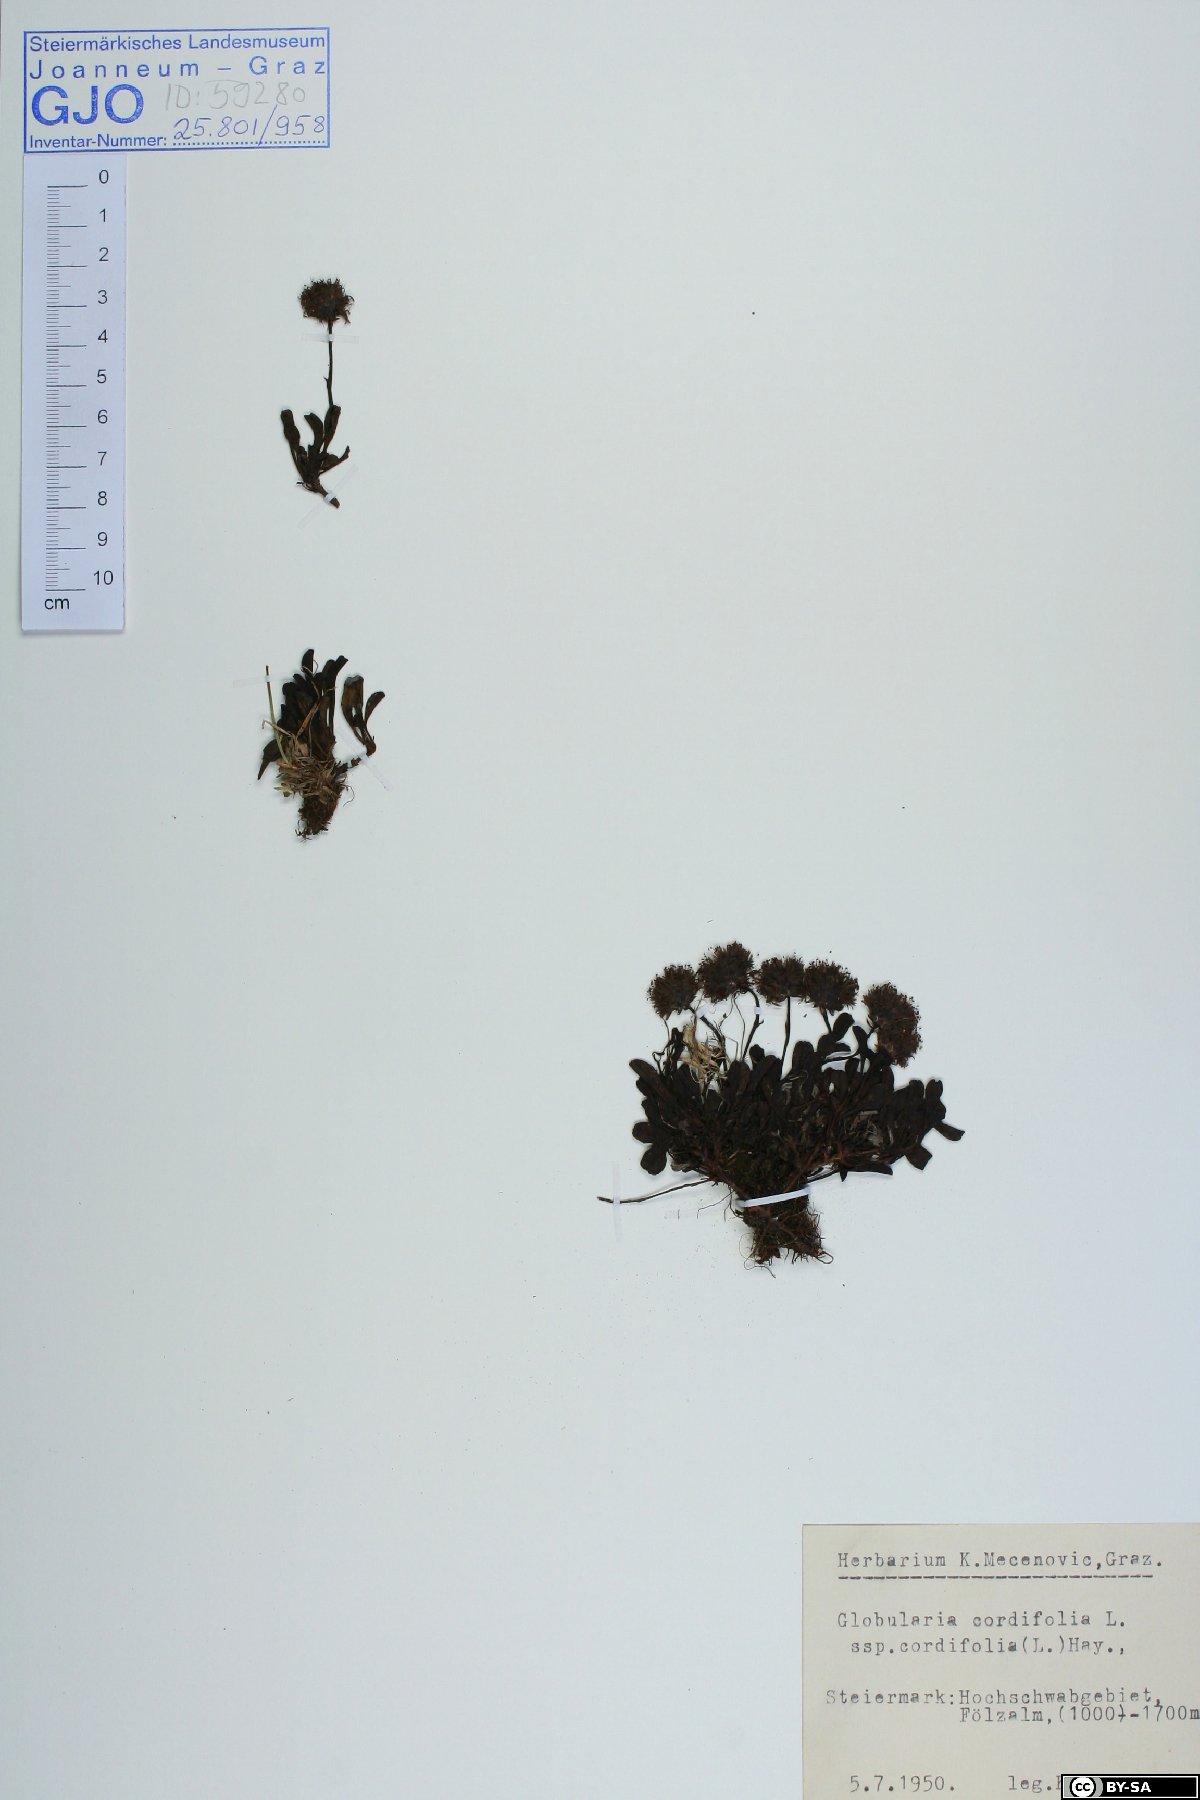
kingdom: Plantae
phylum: Tracheophyta
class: Magnoliopsida
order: Lamiales
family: Plantaginaceae
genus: Globularia
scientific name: Globularia cordifolia
